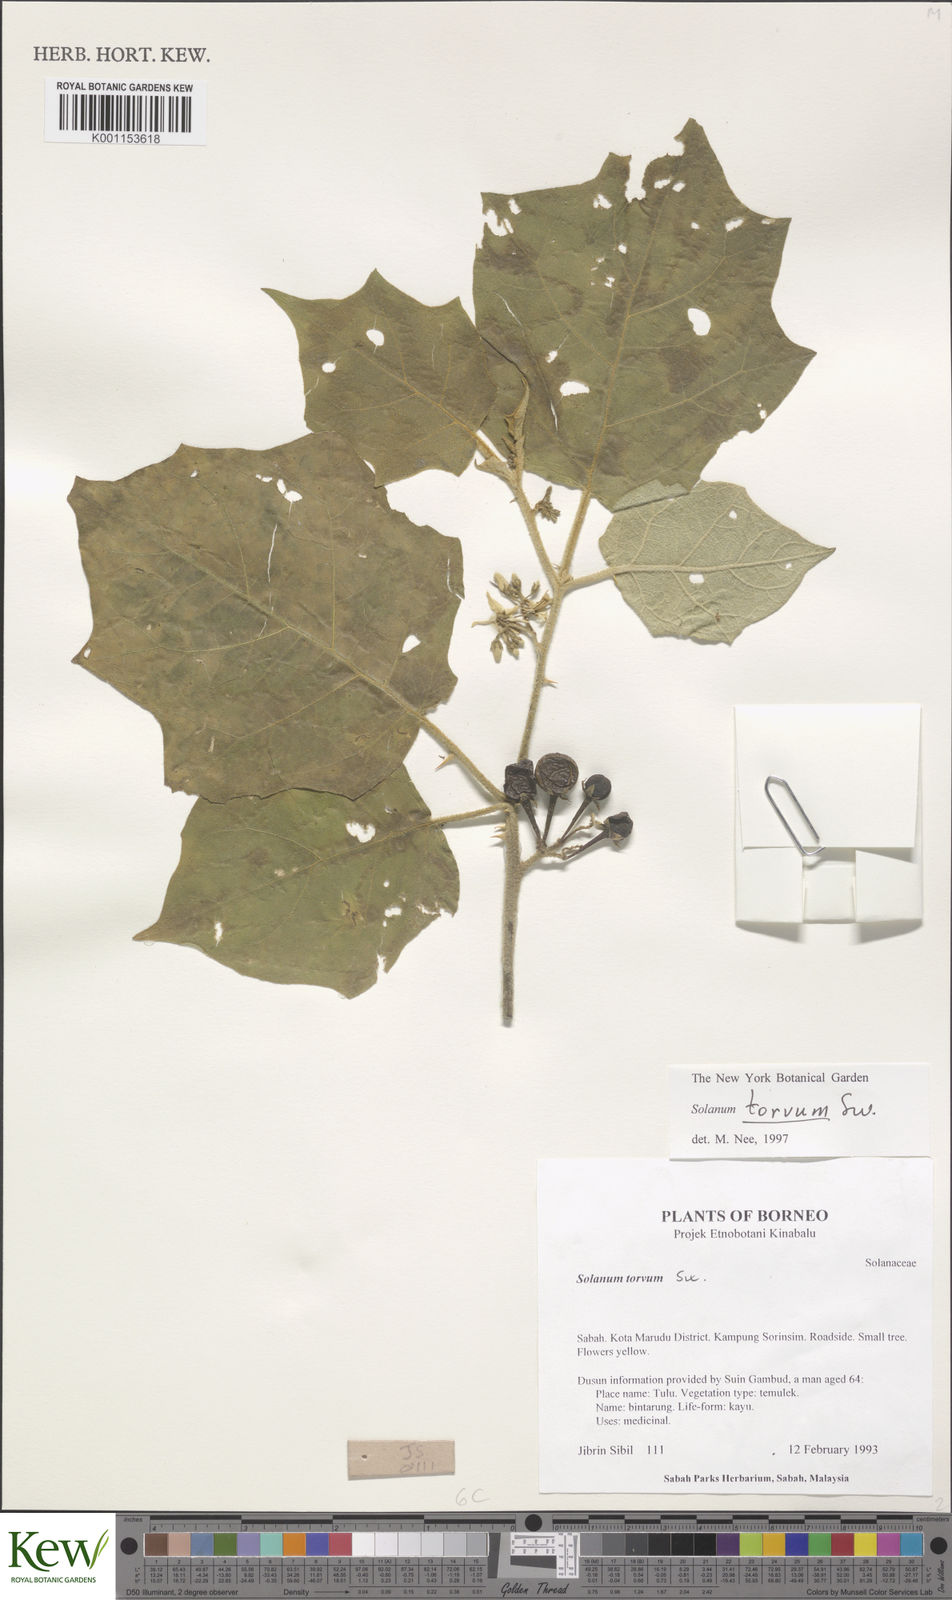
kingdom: Plantae
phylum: Tracheophyta
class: Magnoliopsida
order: Solanales
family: Solanaceae
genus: Solanum
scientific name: Solanum torvum
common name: Turkey berry
